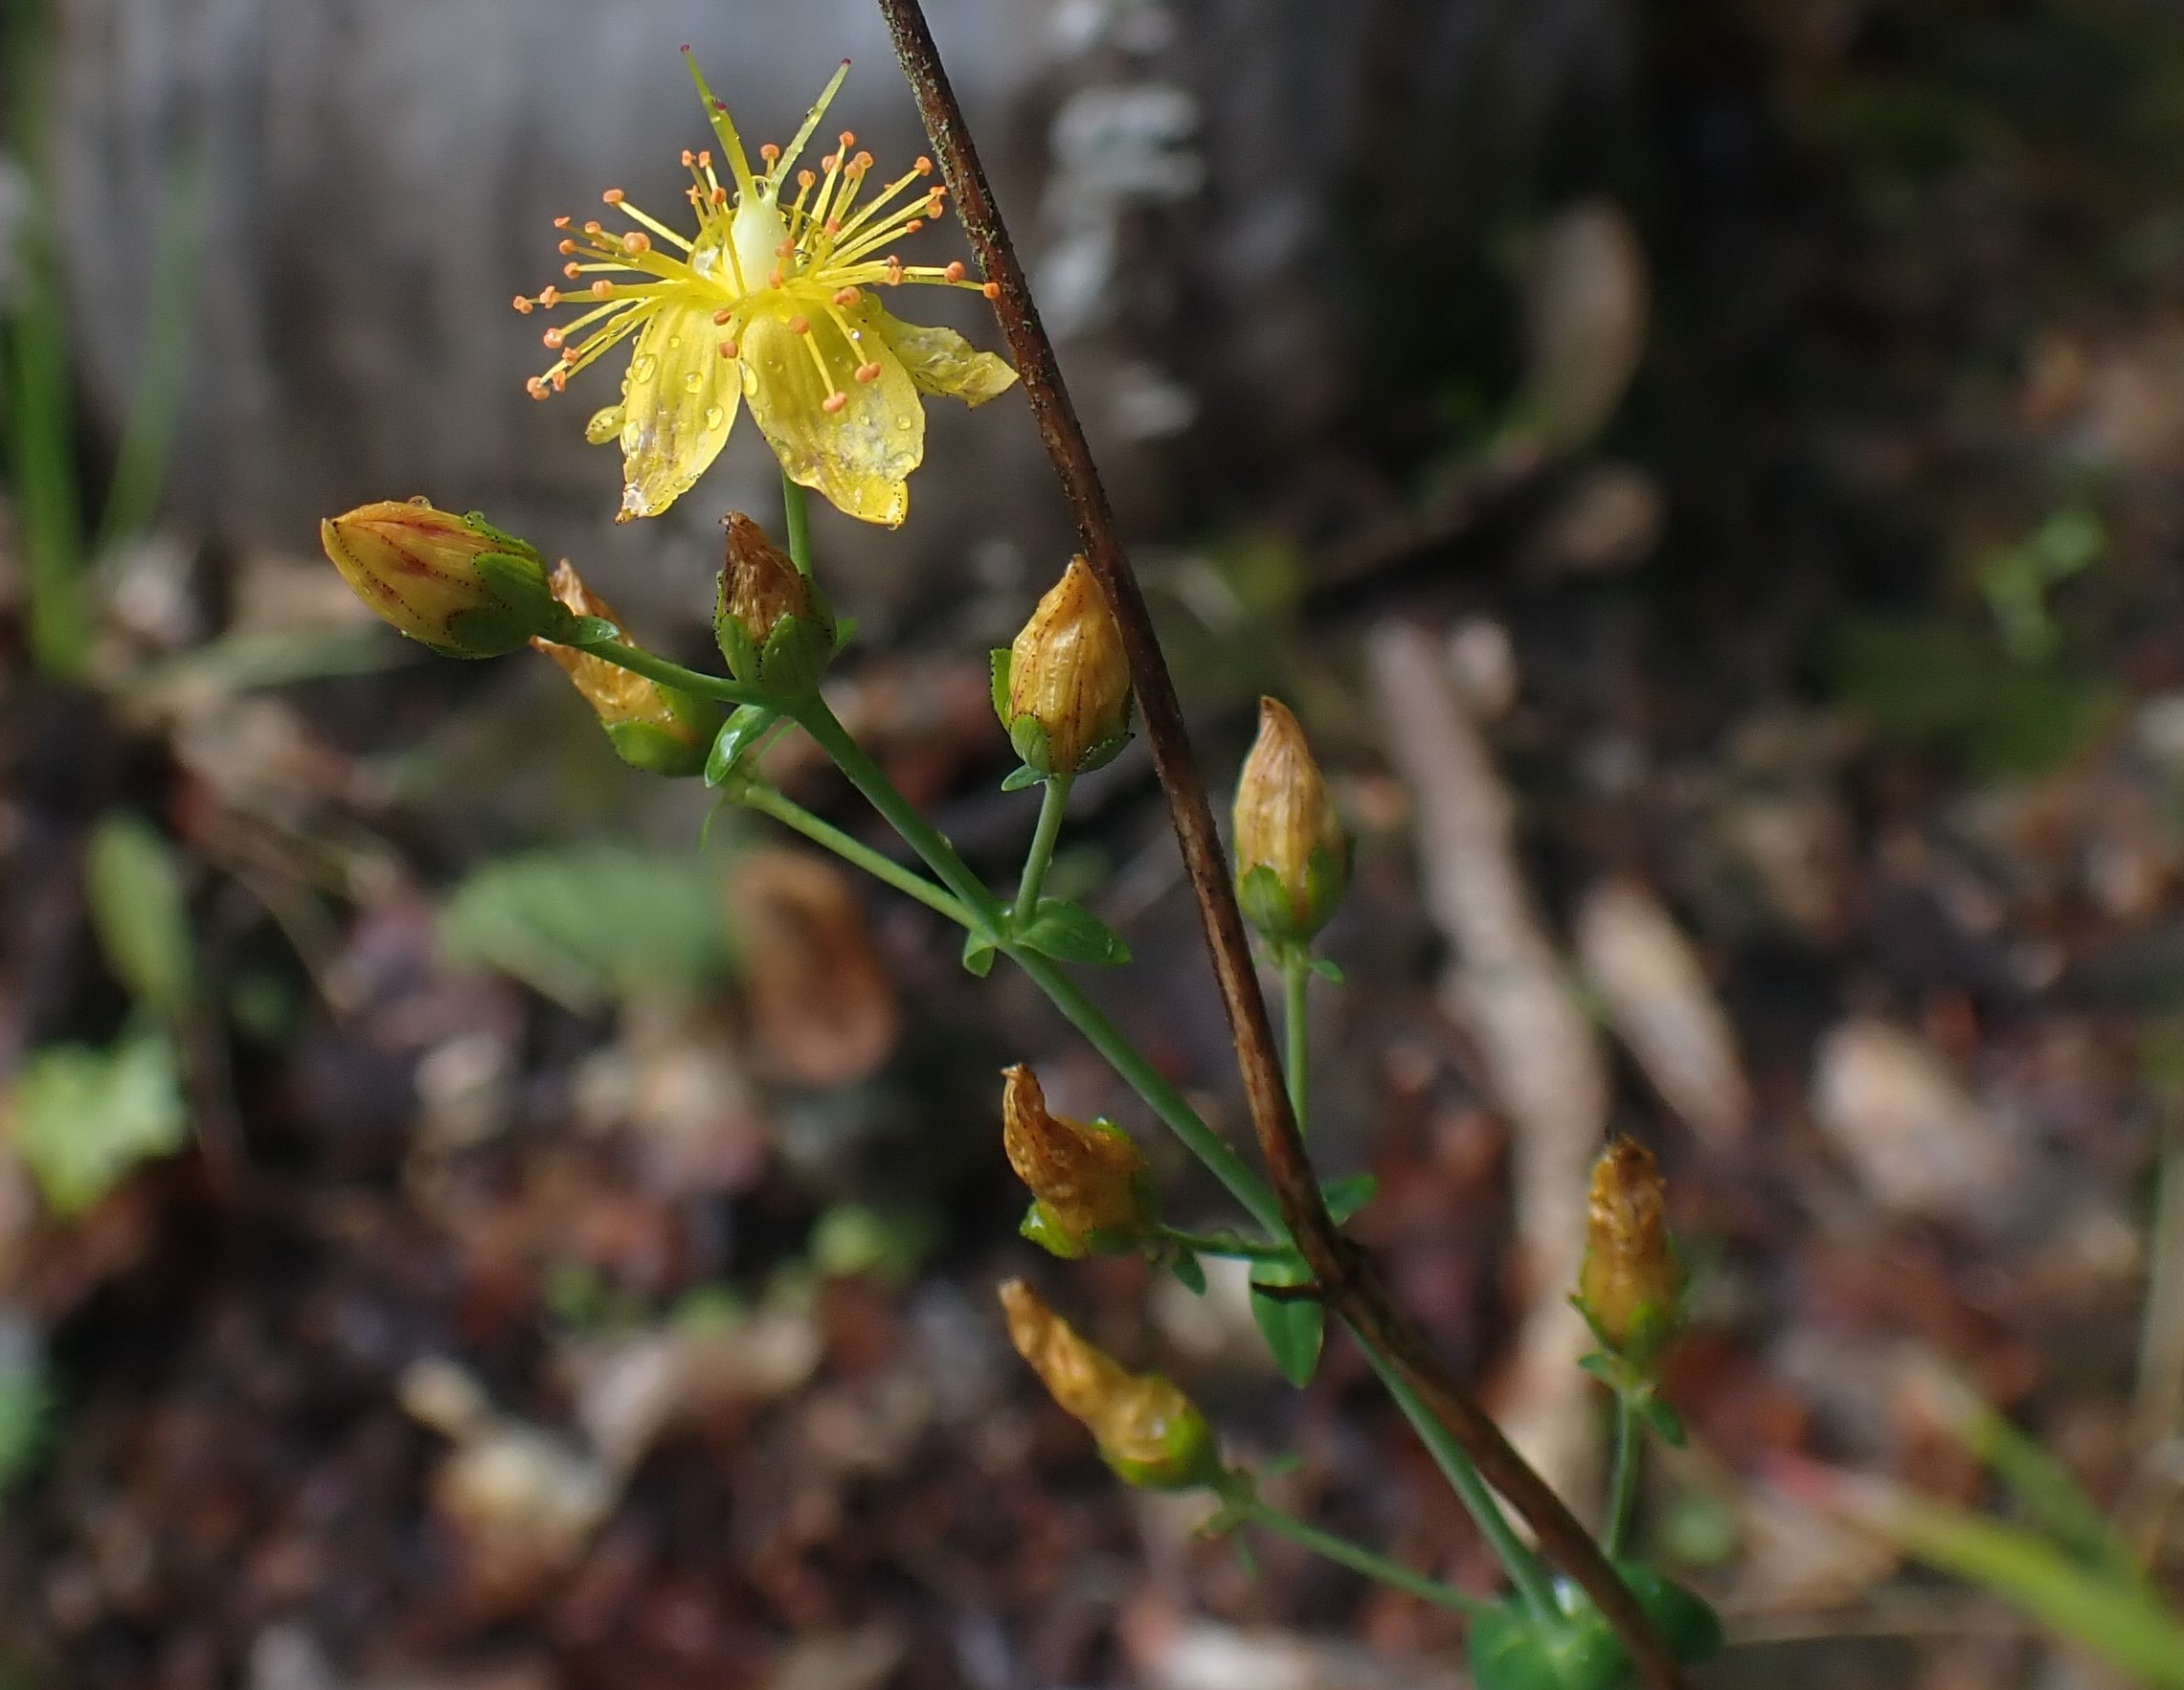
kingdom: Plantae
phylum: Tracheophyta
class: Magnoliopsida
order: Malpighiales
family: Hypericaceae
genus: Hypericum
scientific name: Hypericum pulchrum
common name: Smuk perikon
